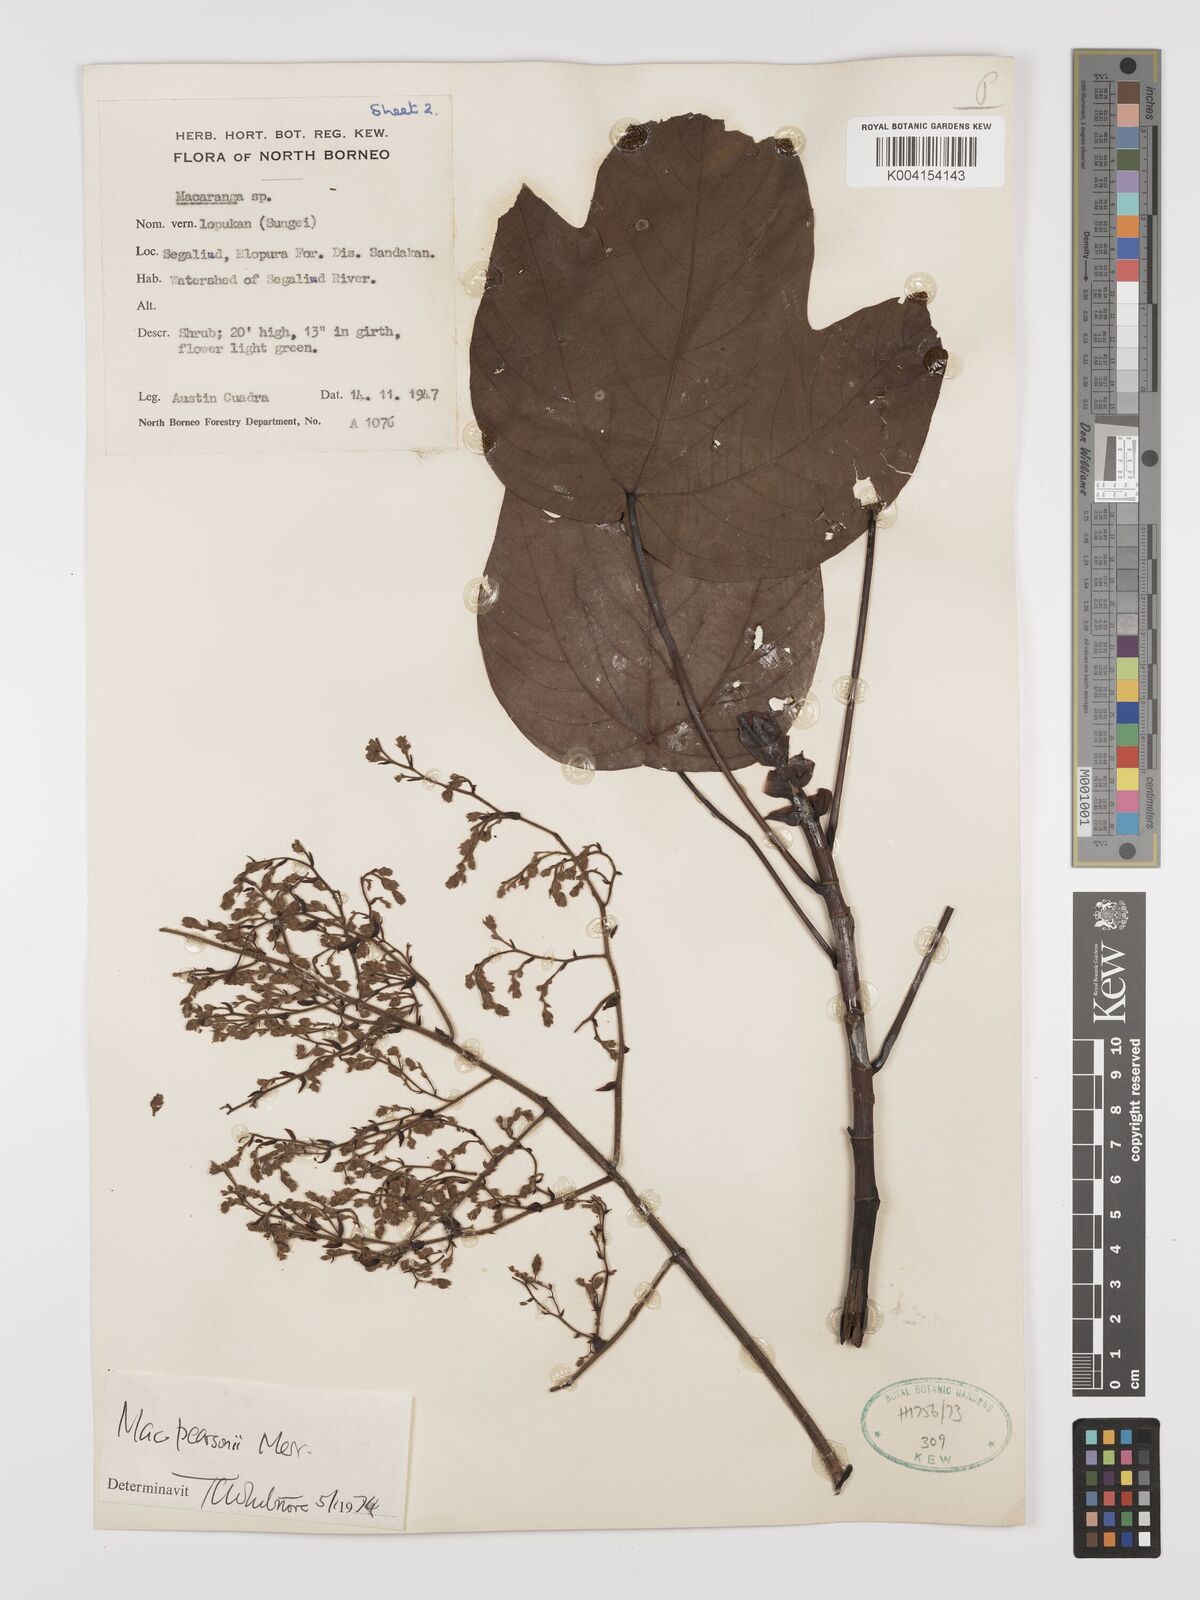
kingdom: Plantae
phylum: Tracheophyta
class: Magnoliopsida
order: Malpighiales
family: Euphorbiaceae
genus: Macaranga
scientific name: Macaranga pearsonii
